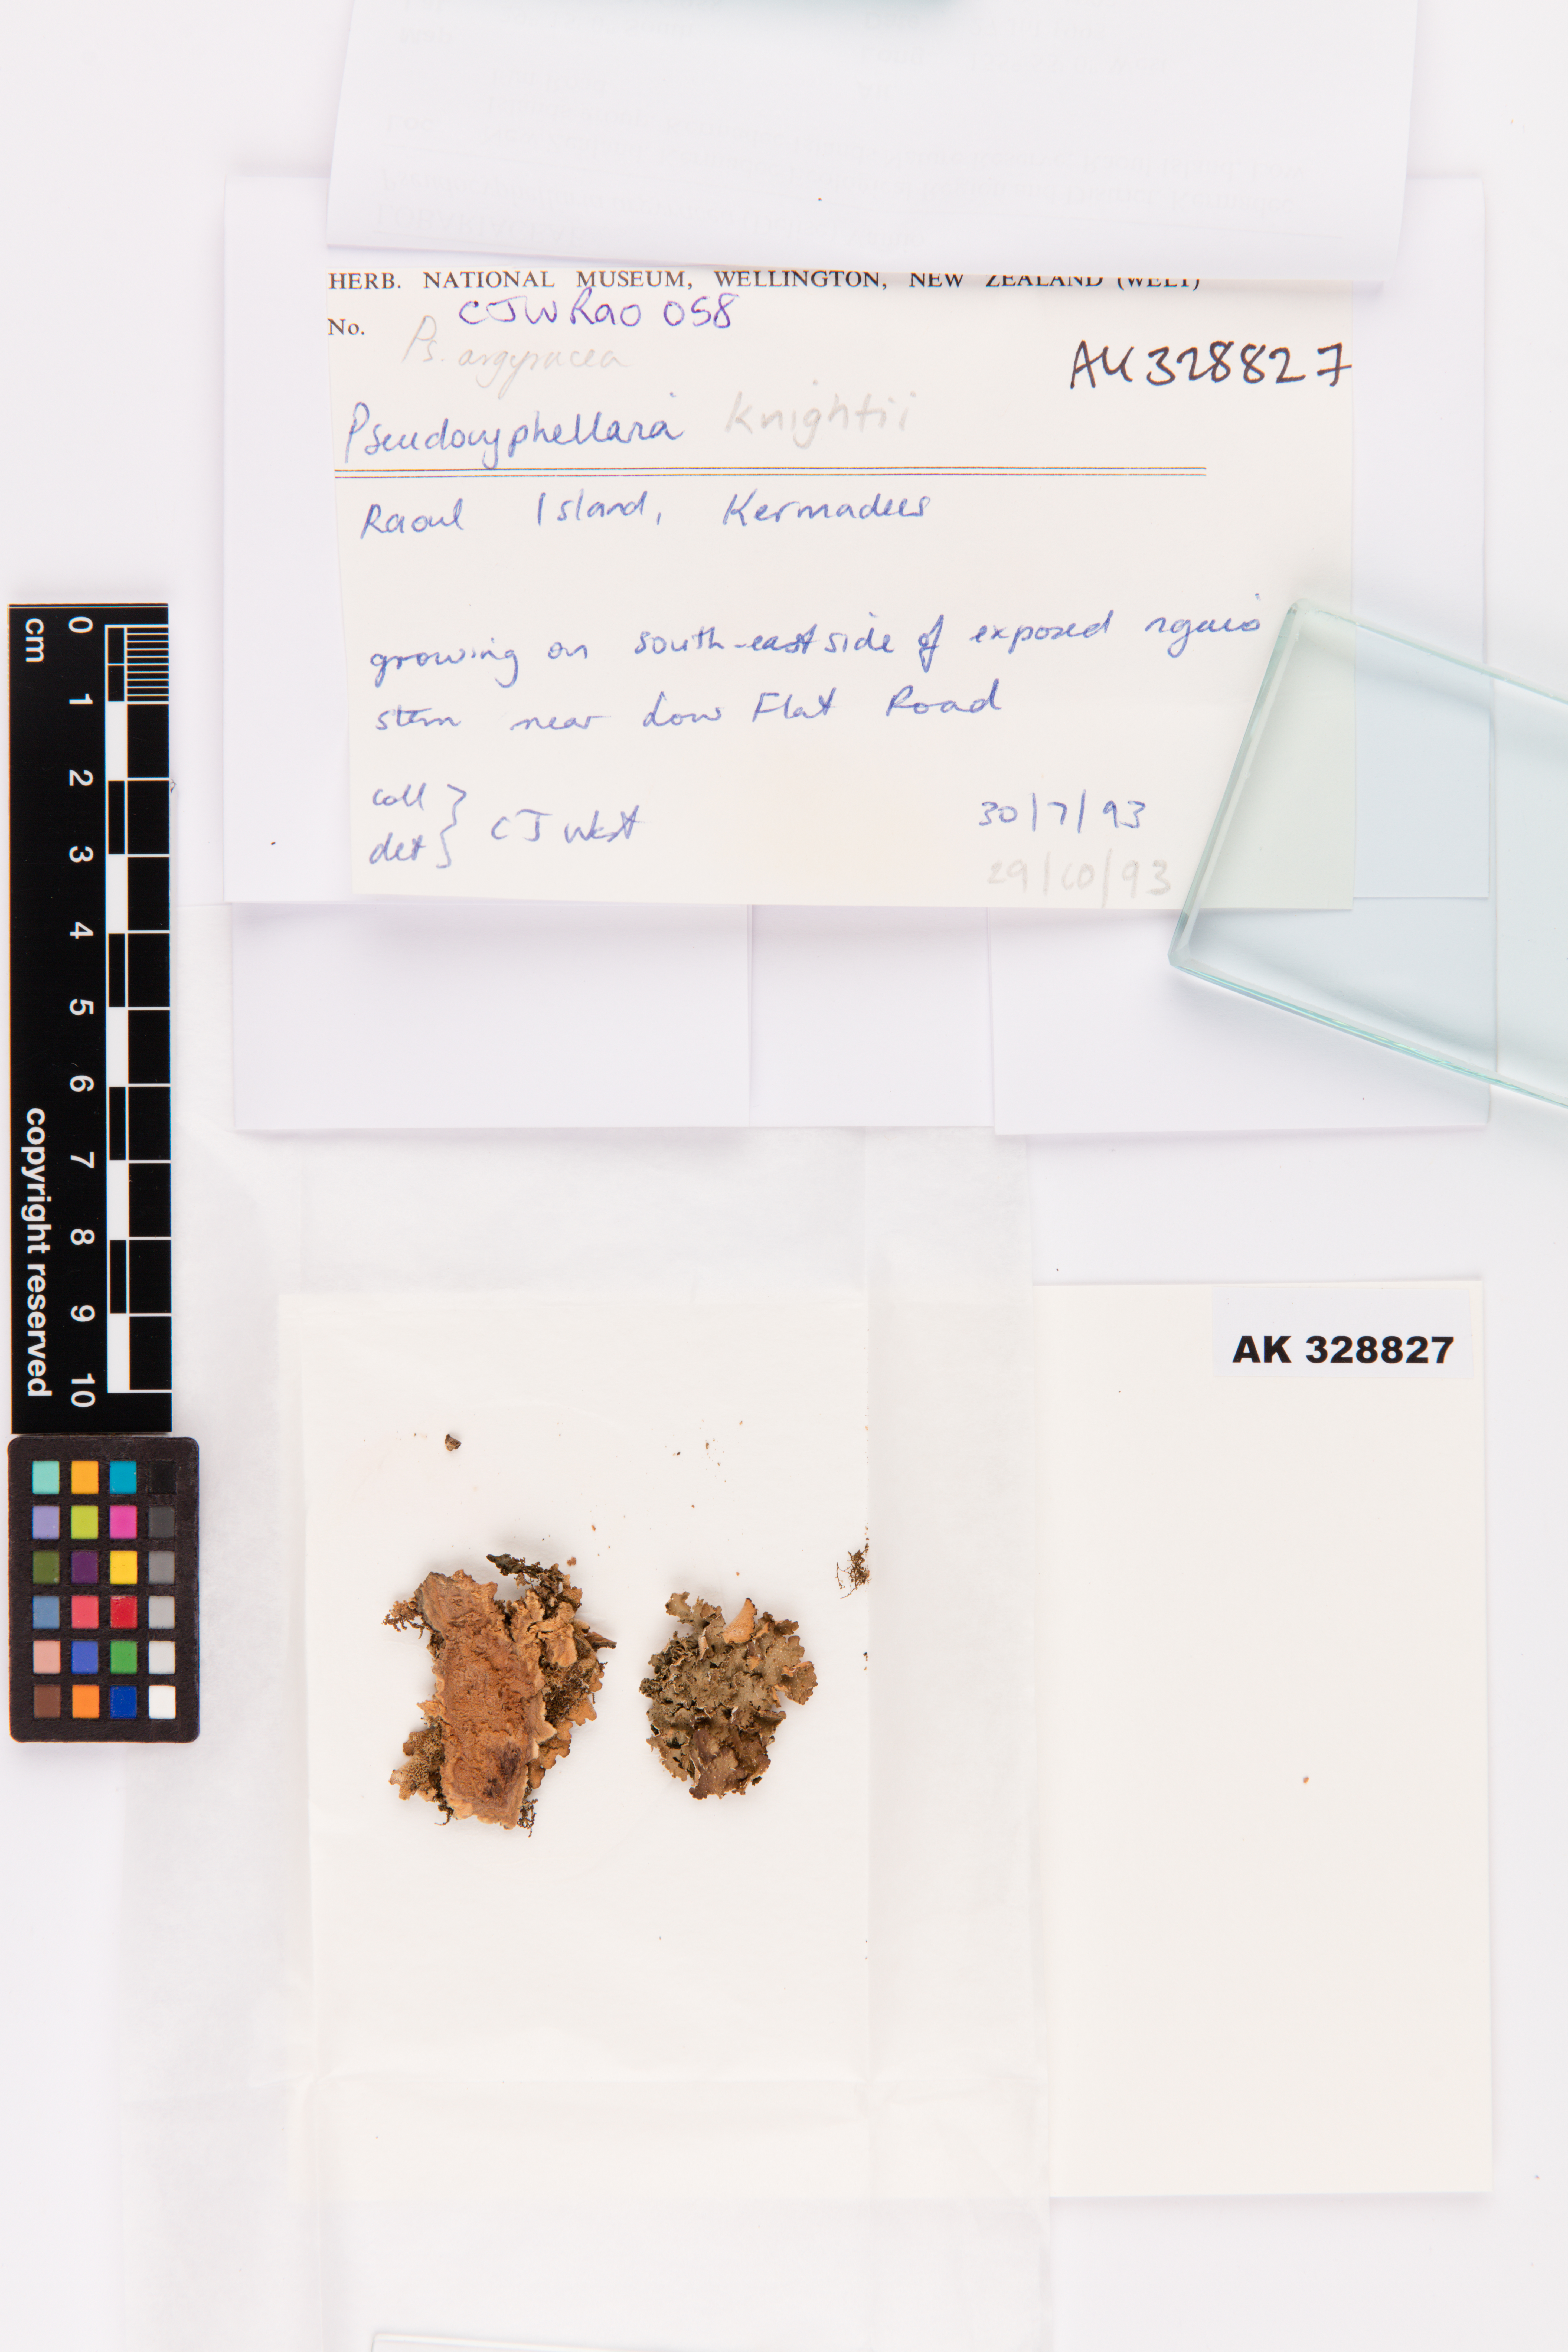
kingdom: Fungi
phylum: Ascomycota
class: Lecanoromycetes
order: Peltigerales
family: Lobariaceae
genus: Pseudocyphellaria
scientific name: Pseudocyphellaria argyracea
